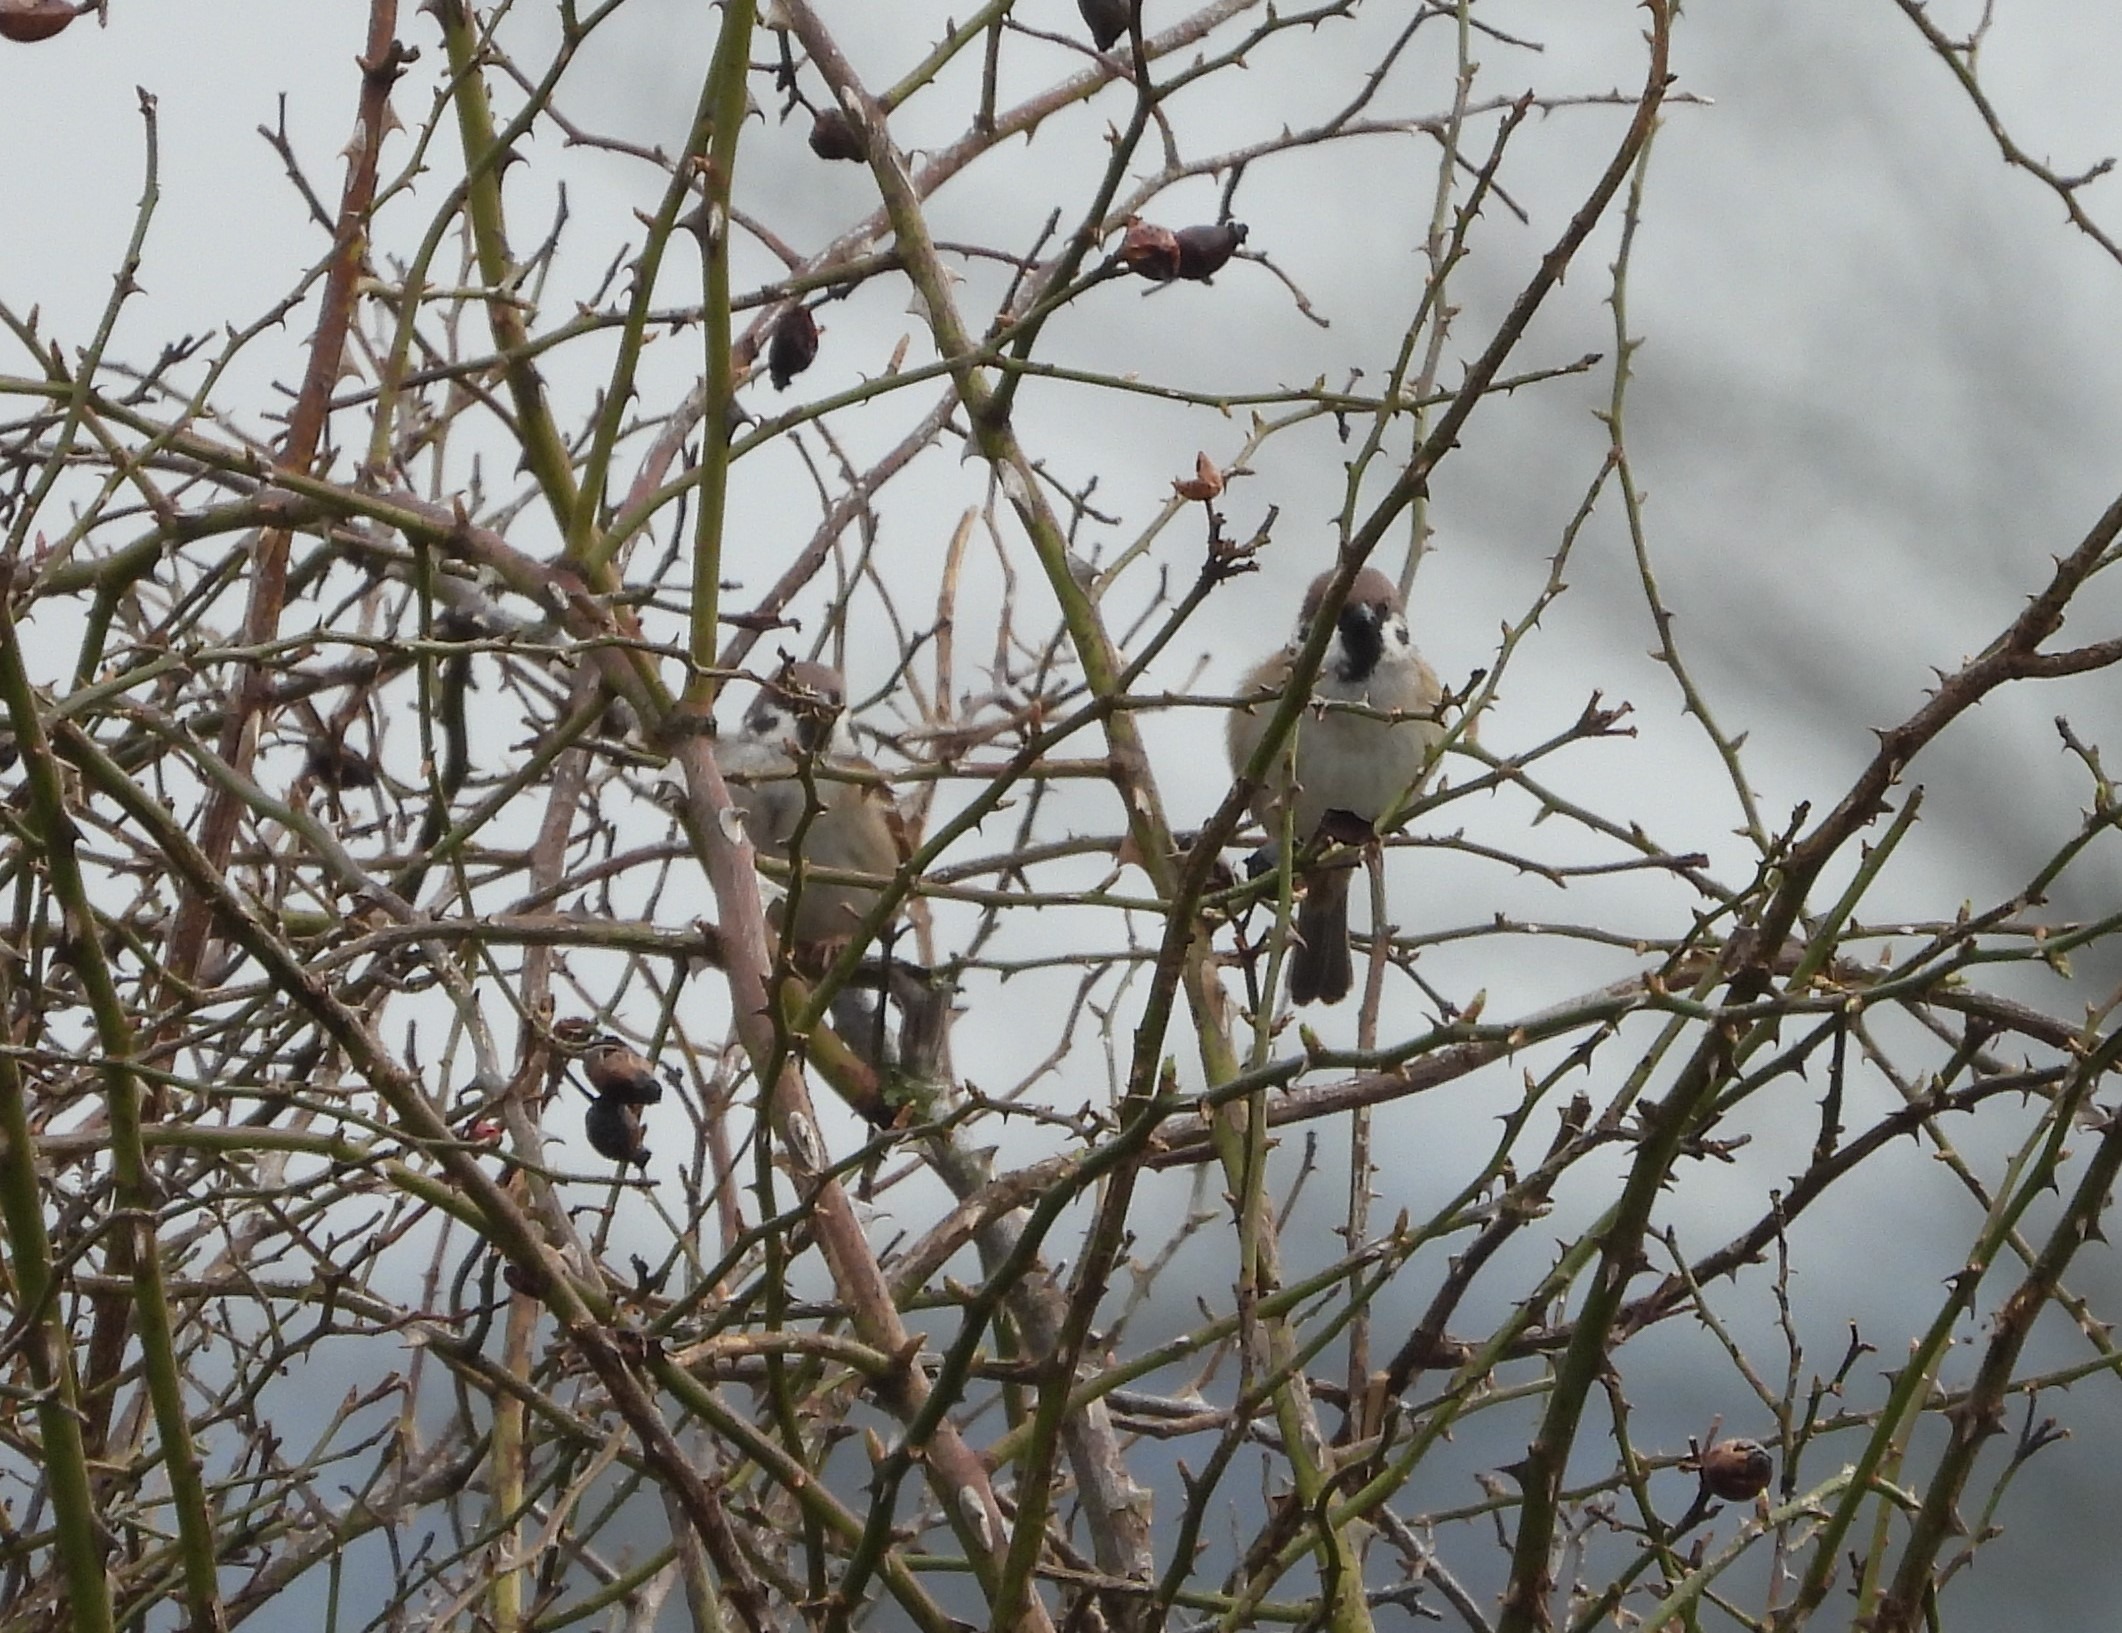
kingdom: Animalia
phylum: Chordata
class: Aves
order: Passeriformes
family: Passeridae
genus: Passer
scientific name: Passer montanus
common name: Skovspurv
